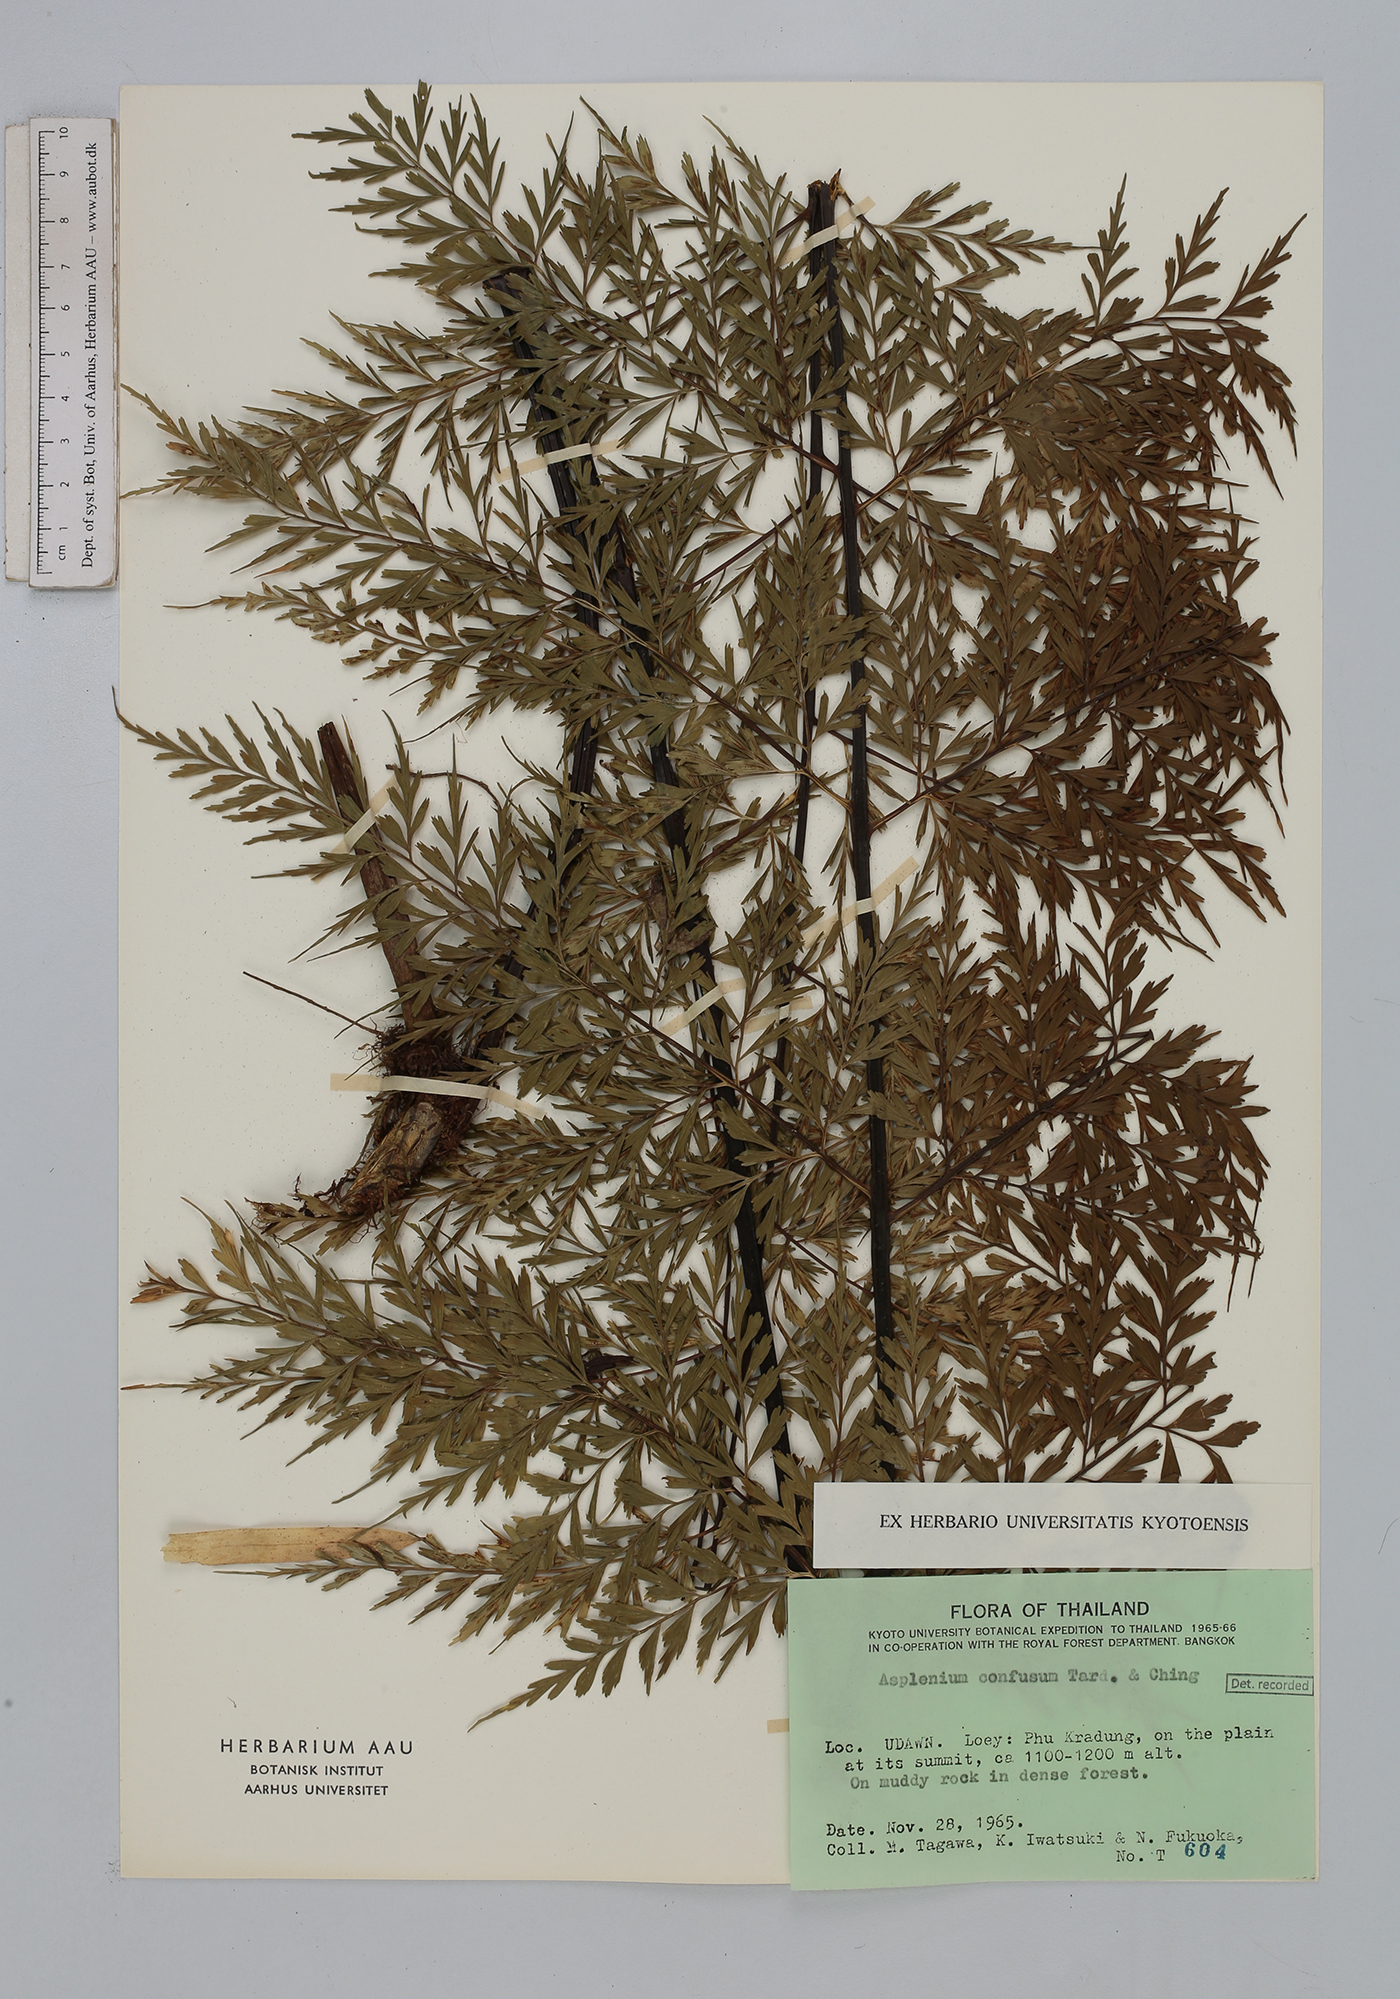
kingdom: Plantae
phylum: Tracheophyta
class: Polypodiopsida
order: Polypodiales
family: Aspleniaceae
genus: Asplenium
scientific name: Asplenium cristatum
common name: Parsley spleenwort
